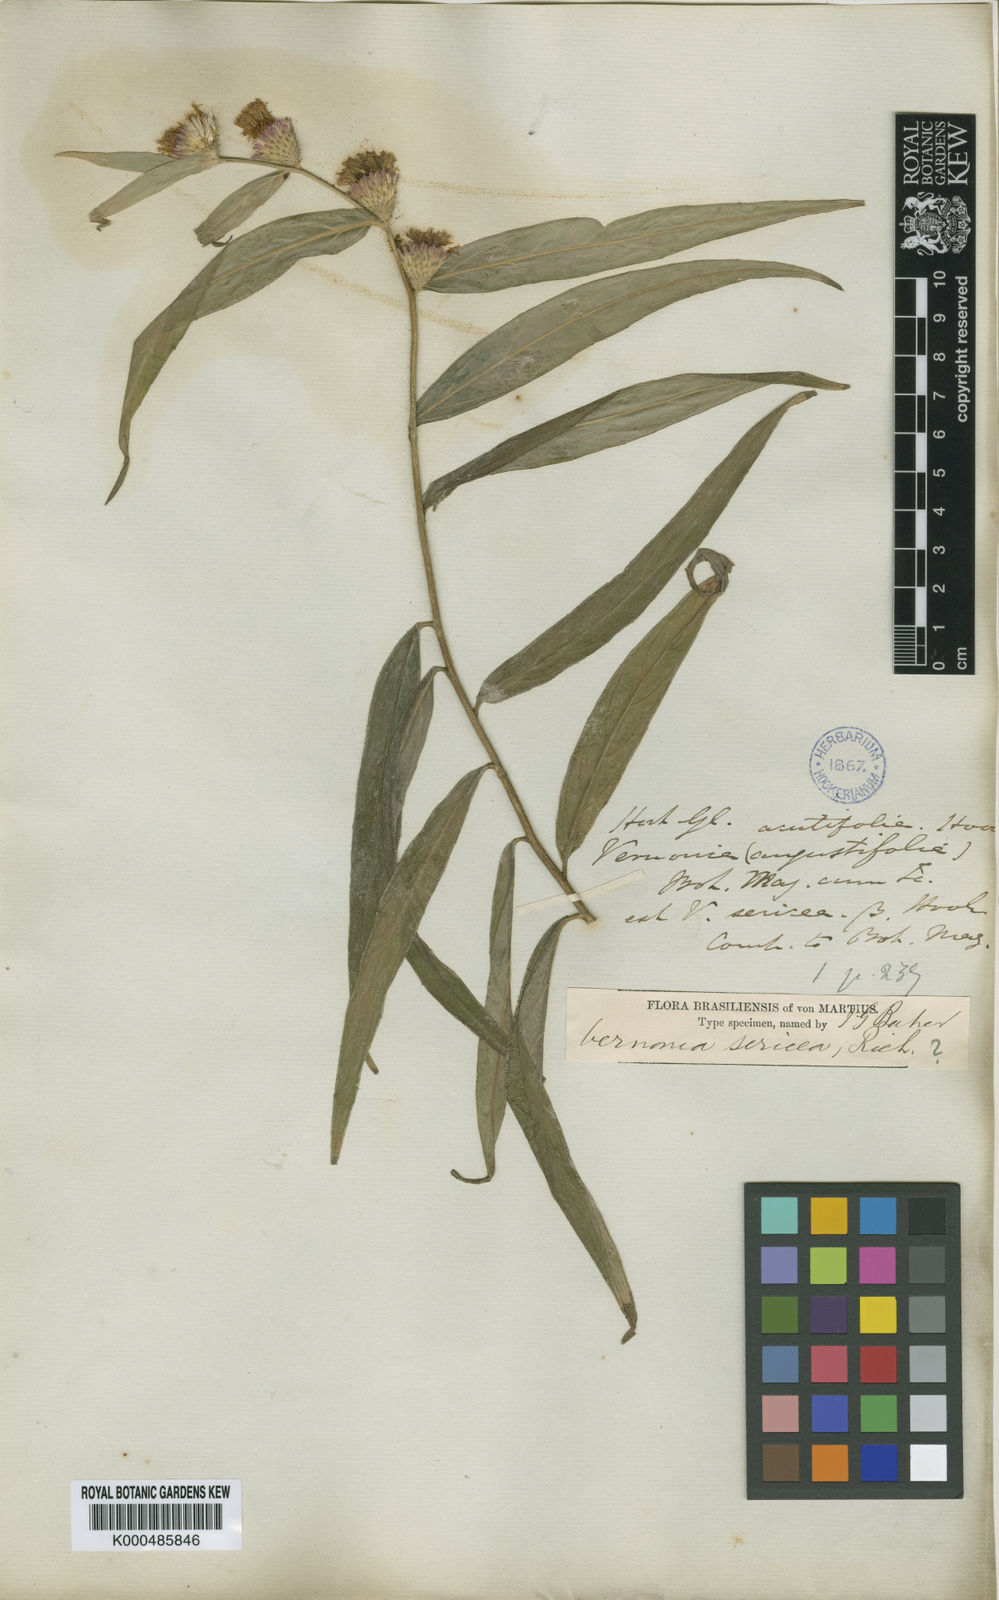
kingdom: Plantae
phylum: Tracheophyta
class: Magnoliopsida
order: Asterales
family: Asteraceae
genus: Lepidaploa
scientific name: Lepidaploa sericea
